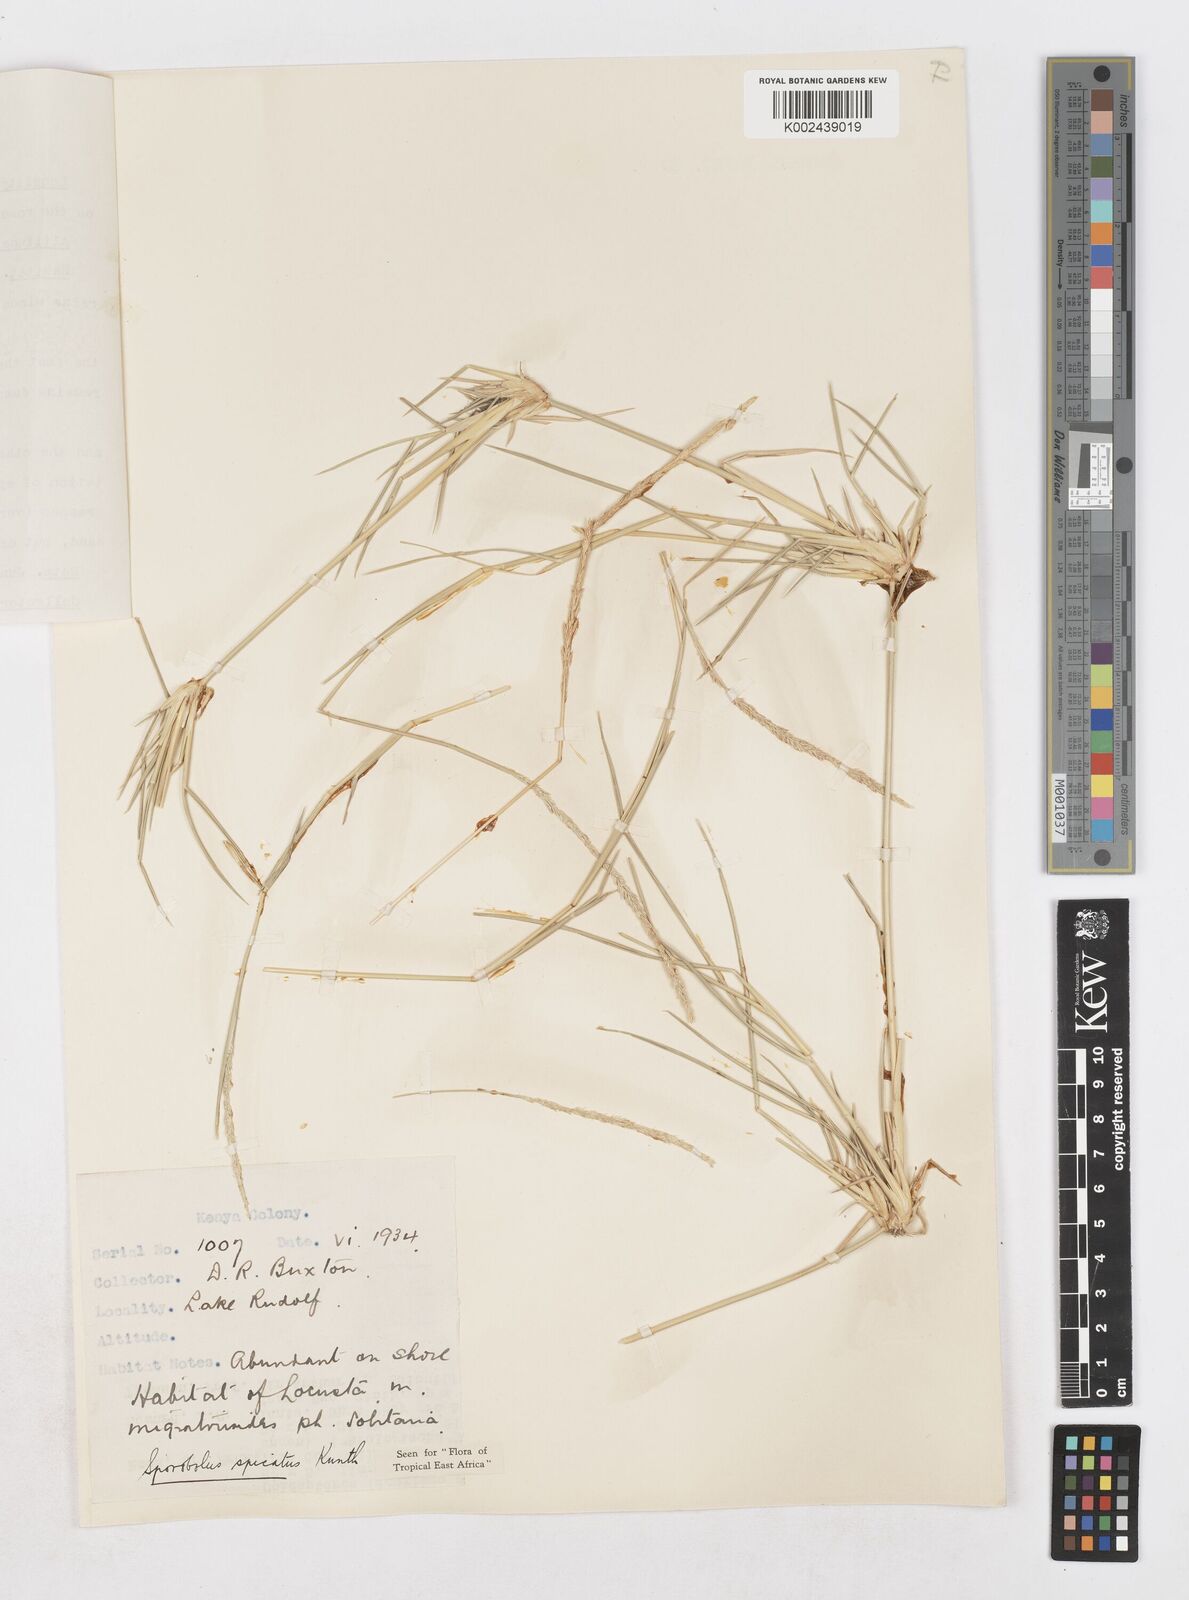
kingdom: Plantae
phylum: Tracheophyta
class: Liliopsida
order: Poales
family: Poaceae
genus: Sporobolus
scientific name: Sporobolus spicatus
